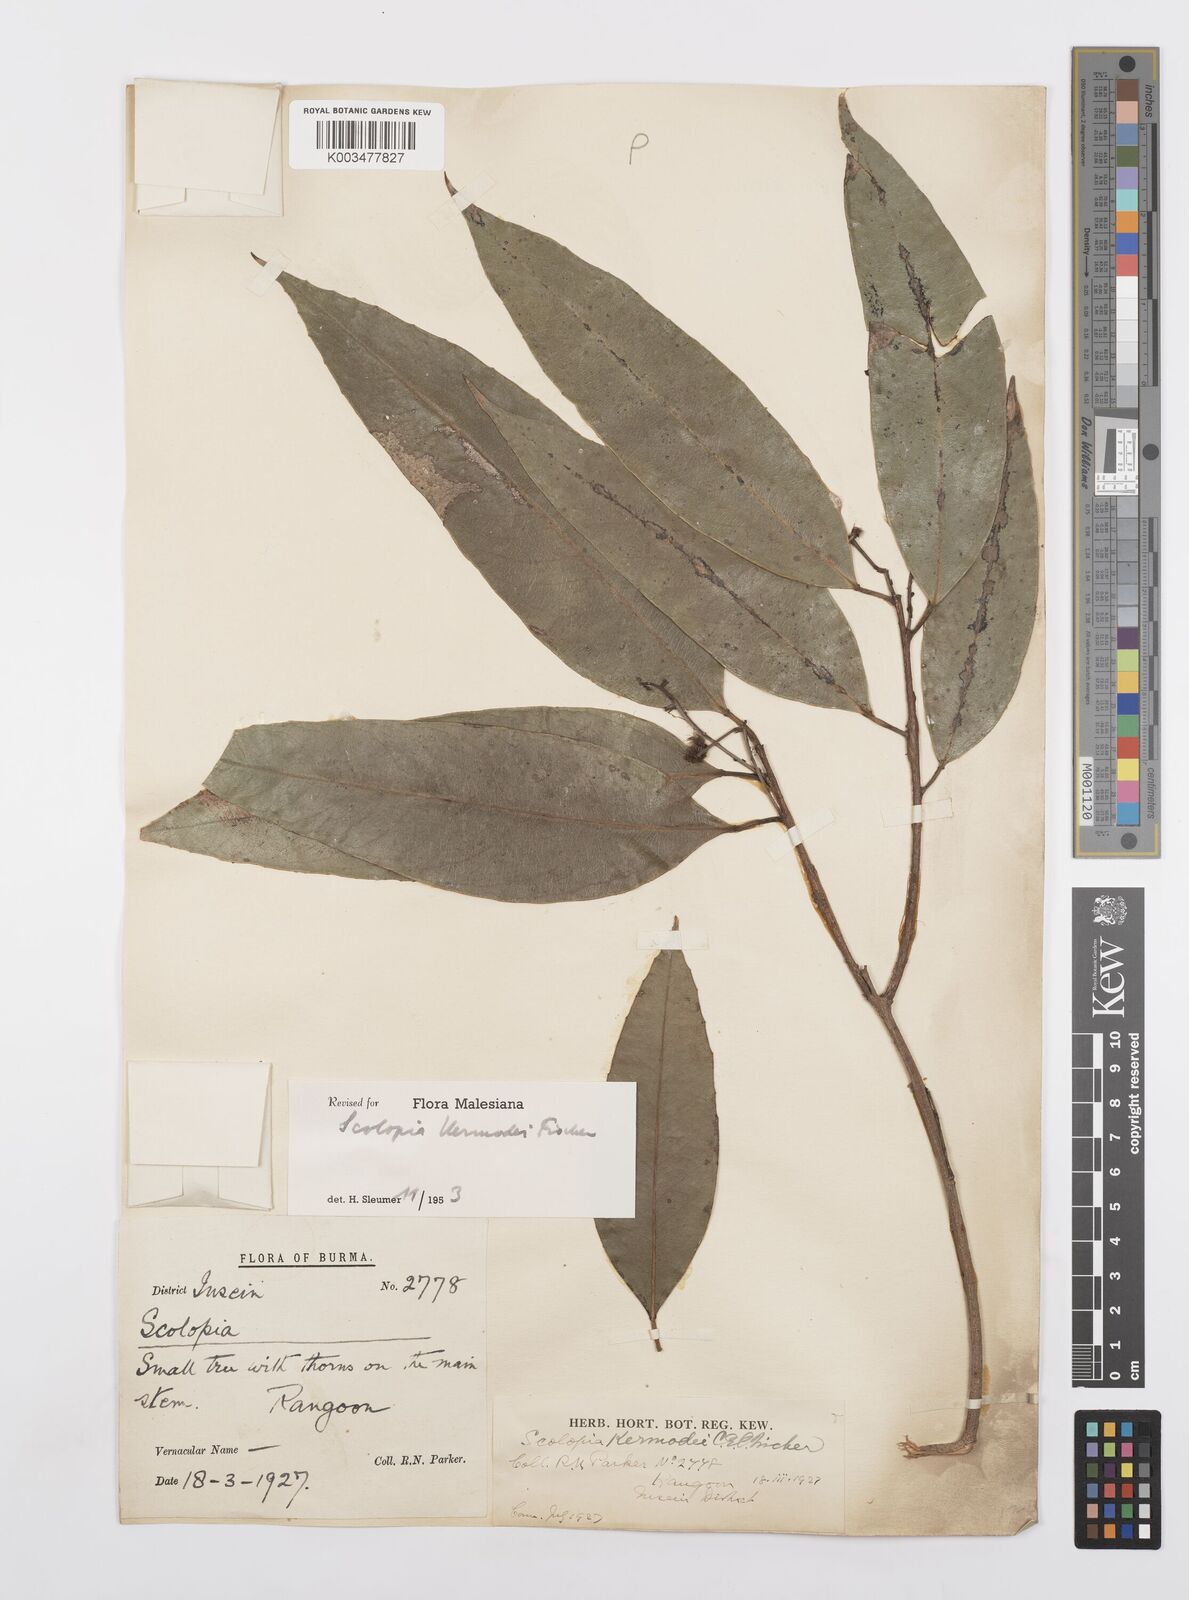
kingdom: Plantae
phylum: Tracheophyta
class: Magnoliopsida
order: Malpighiales
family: Salicaceae
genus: Scolopia
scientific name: Scolopia kermodei
